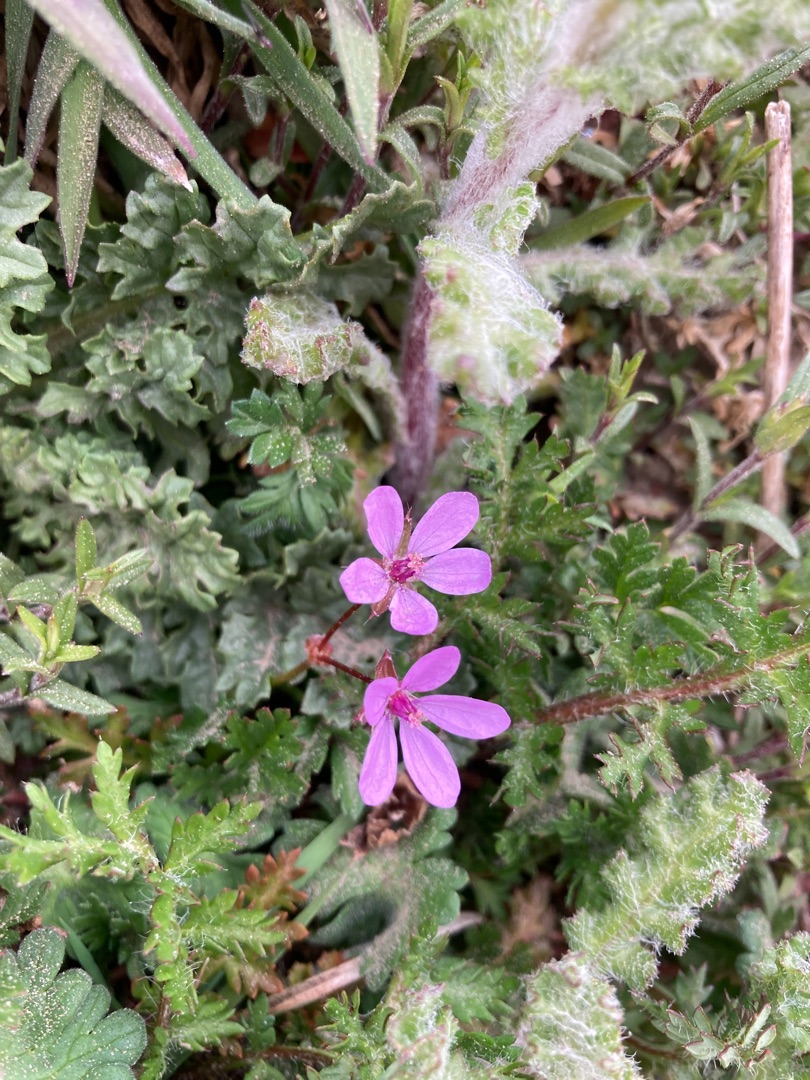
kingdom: Plantae
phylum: Tracheophyta
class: Magnoliopsida
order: Geraniales
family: Geraniaceae
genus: Erodium
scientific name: Erodium cicutarium
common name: Hejrenæb
